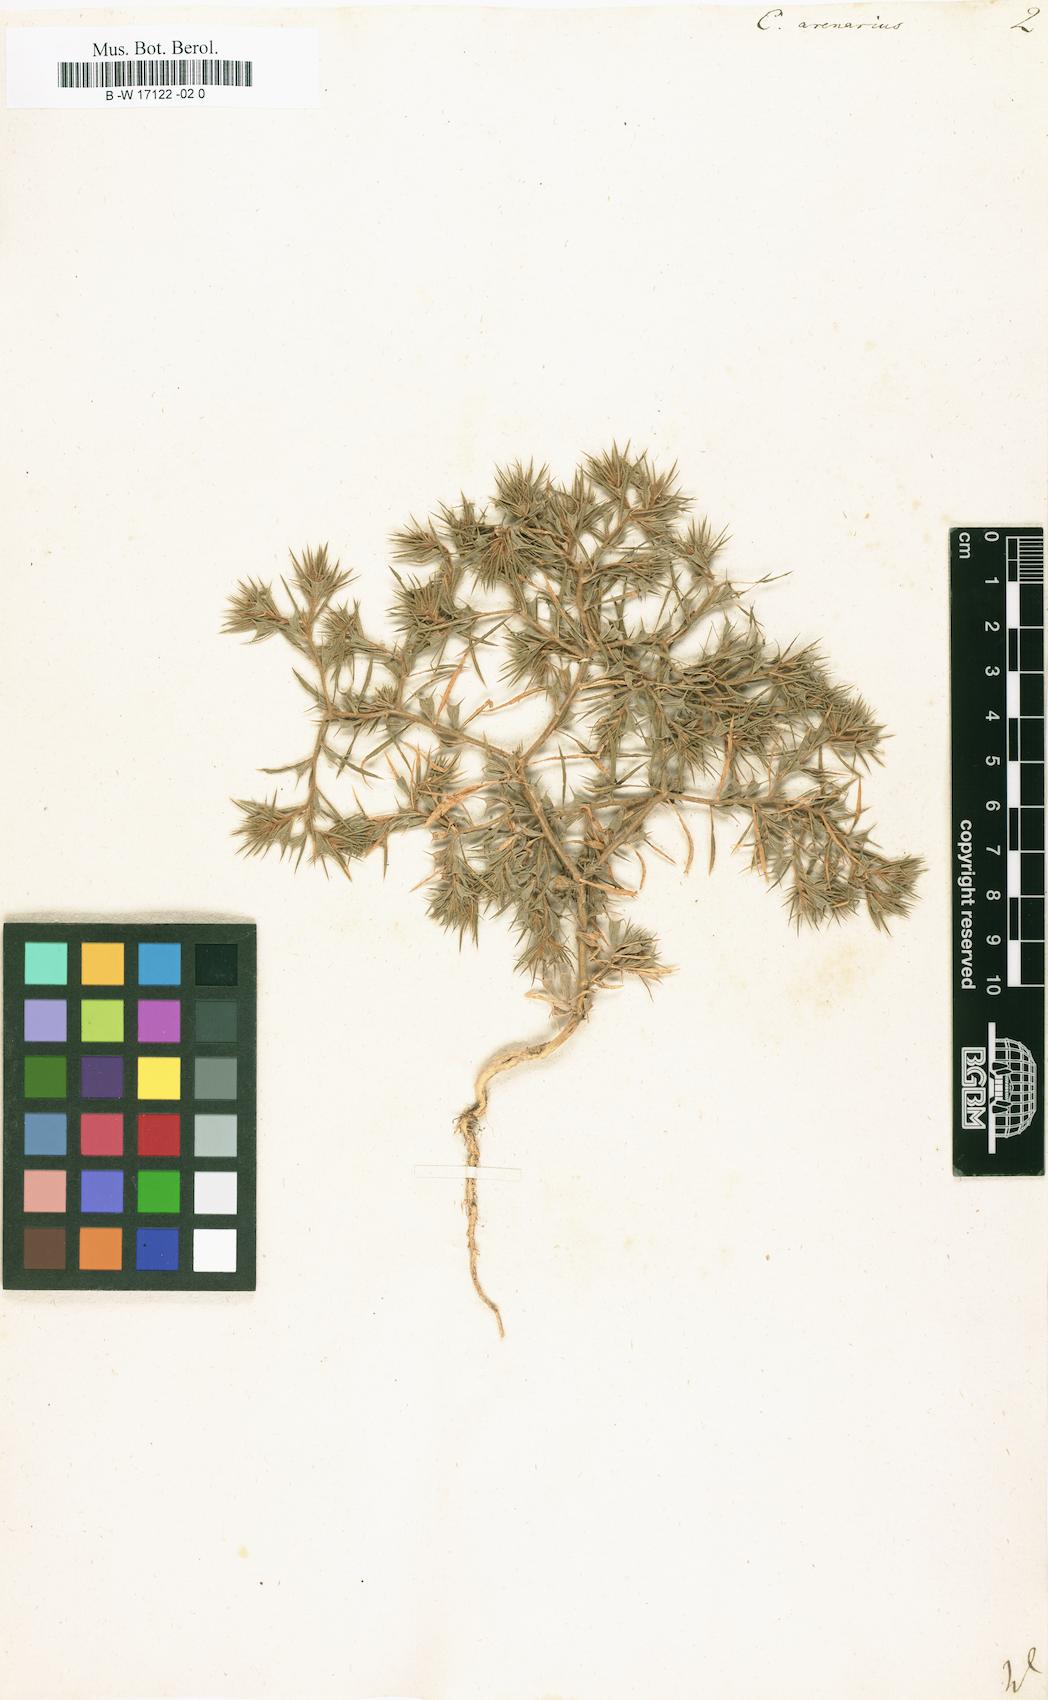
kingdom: Plantae
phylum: Tracheophyta
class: Magnoliopsida
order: Caryophyllales
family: Amaranthaceae
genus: Ceratocarpus
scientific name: Ceratocarpus arenarius
